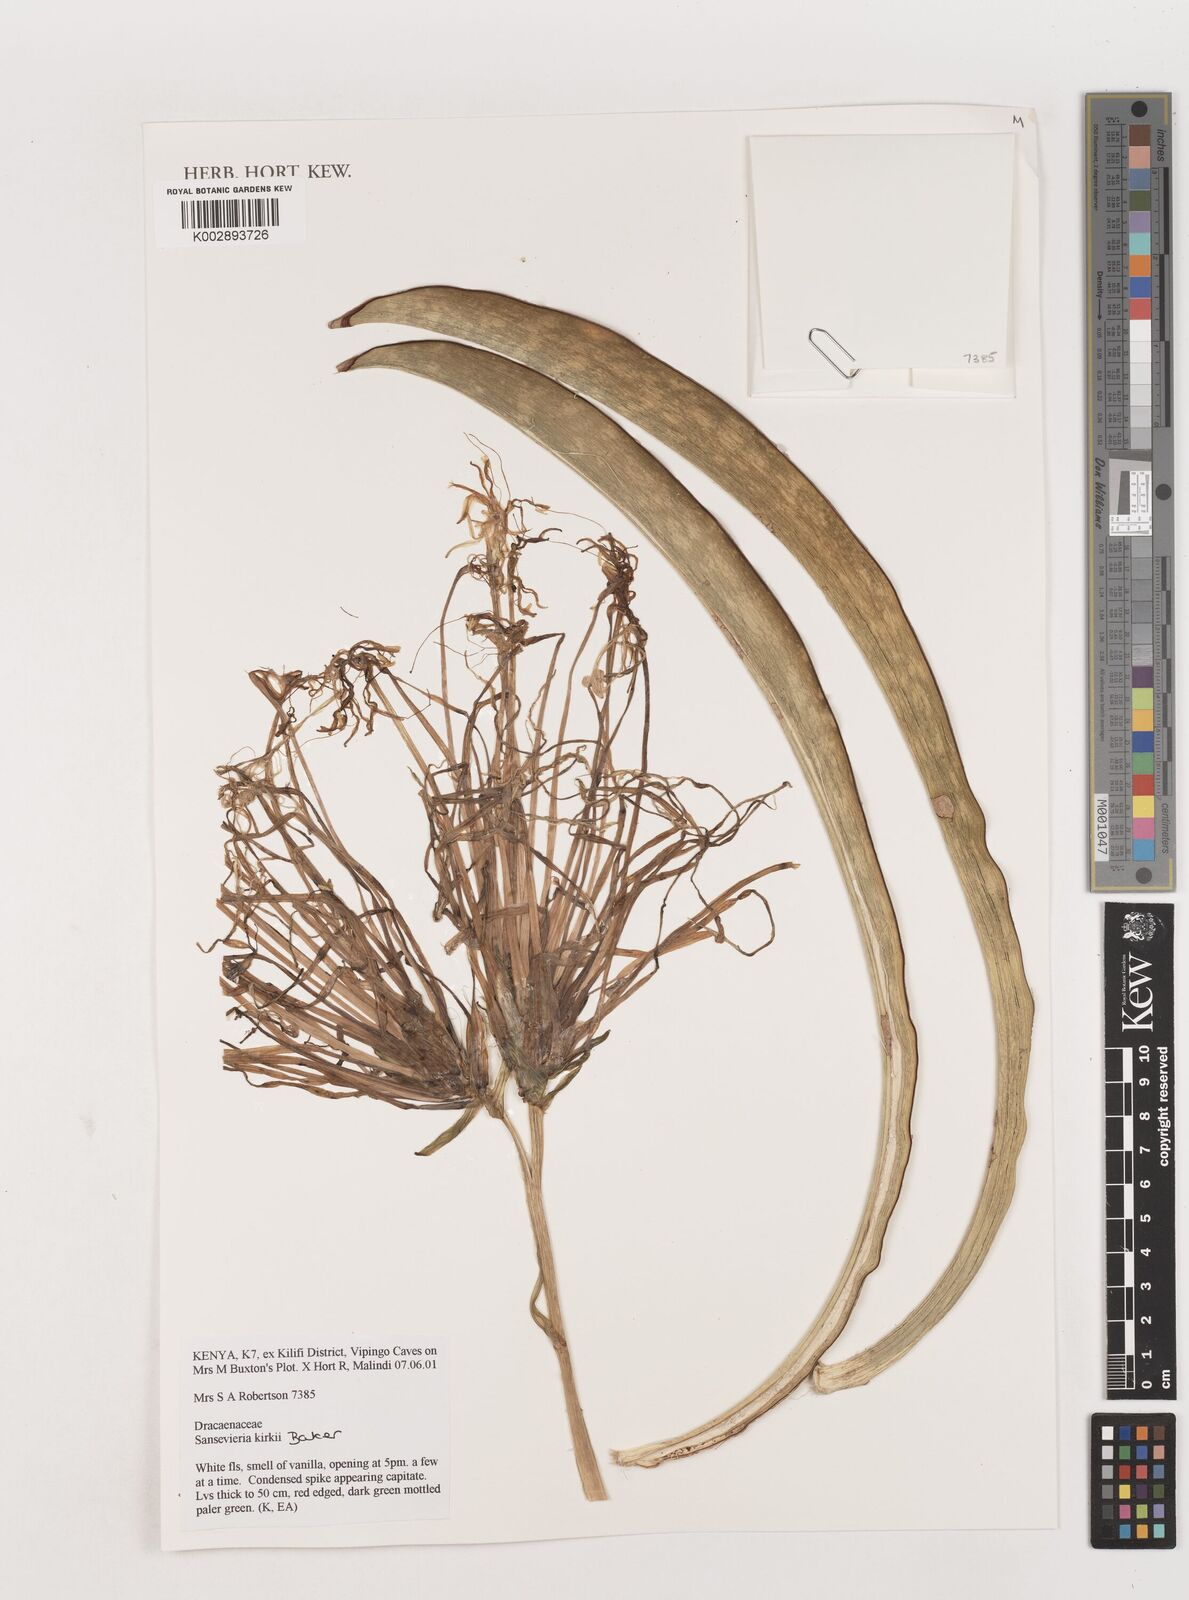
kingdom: Plantae
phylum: Tracheophyta
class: Liliopsida
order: Asparagales
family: Asparagaceae
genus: Dracaena
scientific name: Dracaena pethera
